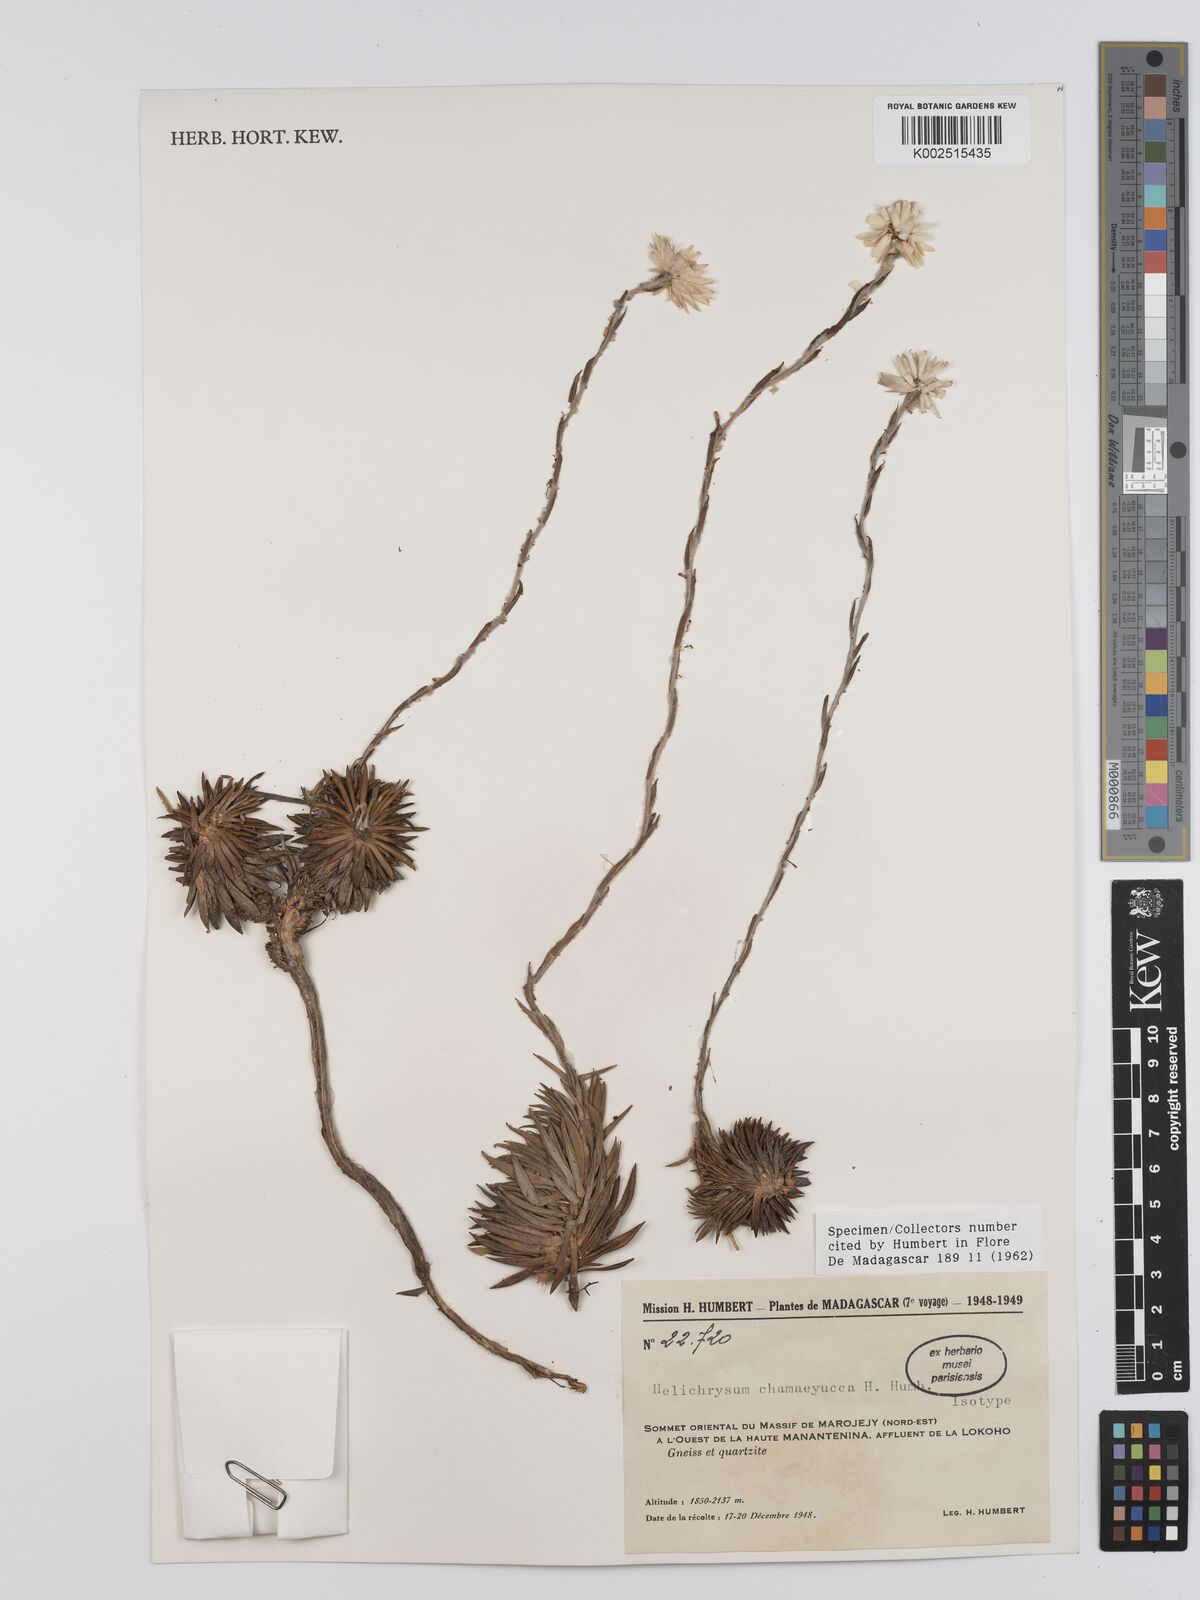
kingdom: Plantae
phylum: Tracheophyta
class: Magnoliopsida
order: Asterales
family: Asteraceae
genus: Helichrysum
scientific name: Helichrysum chamaeyucca
